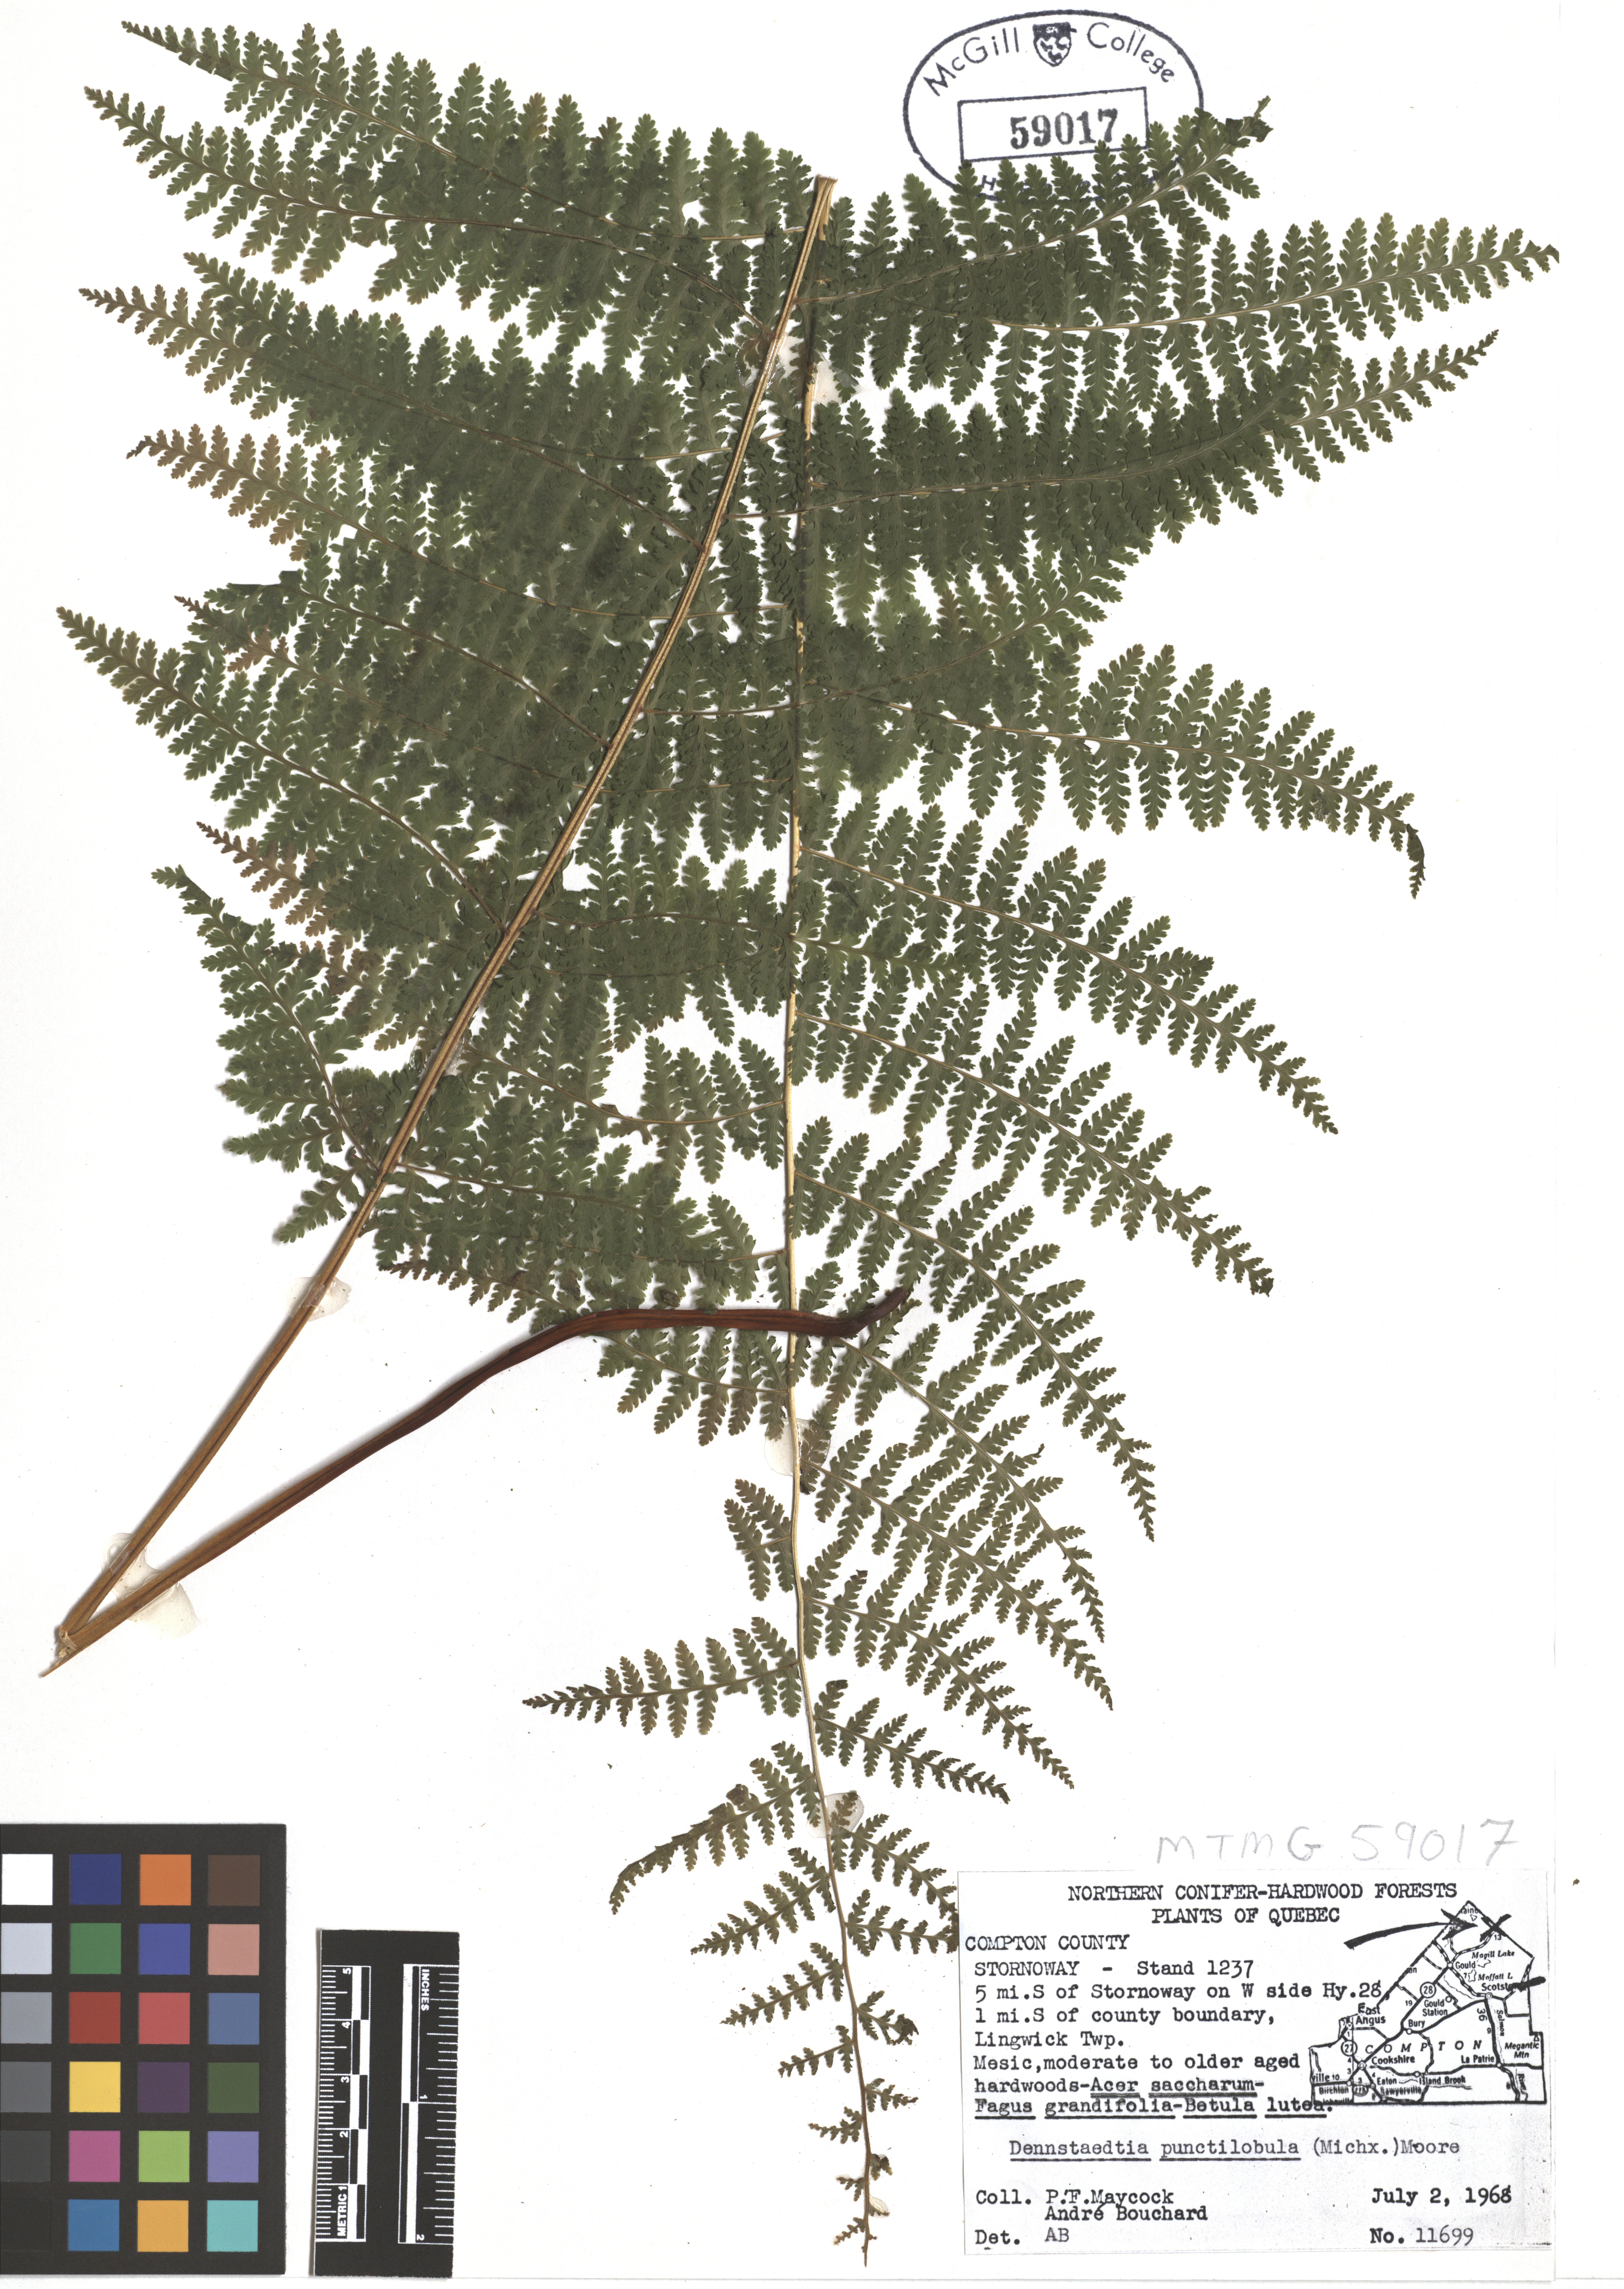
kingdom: Plantae
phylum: Tracheophyta
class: Polypodiopsida
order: Polypodiales
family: Dennstaedtiaceae
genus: Sitobolium
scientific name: Sitobolium punctilobum
